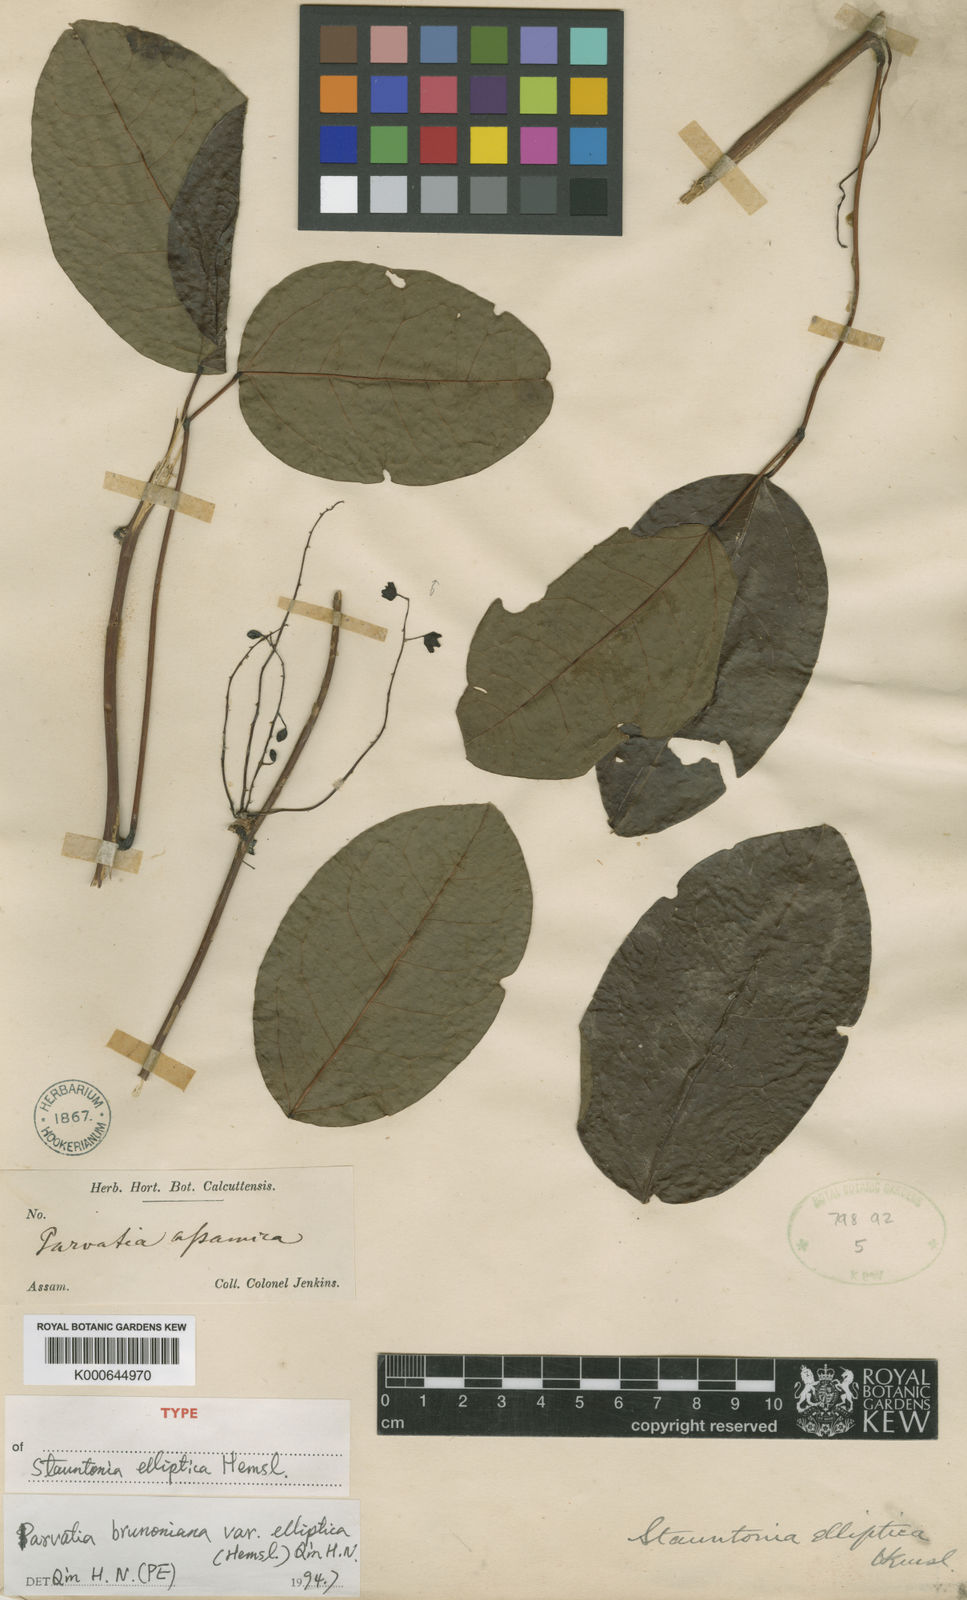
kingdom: Plantae
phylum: Tracheophyta
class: Magnoliopsida
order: Ranunculales
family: Lardizabalaceae
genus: Stauntonia
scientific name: Stauntonia elliptica
